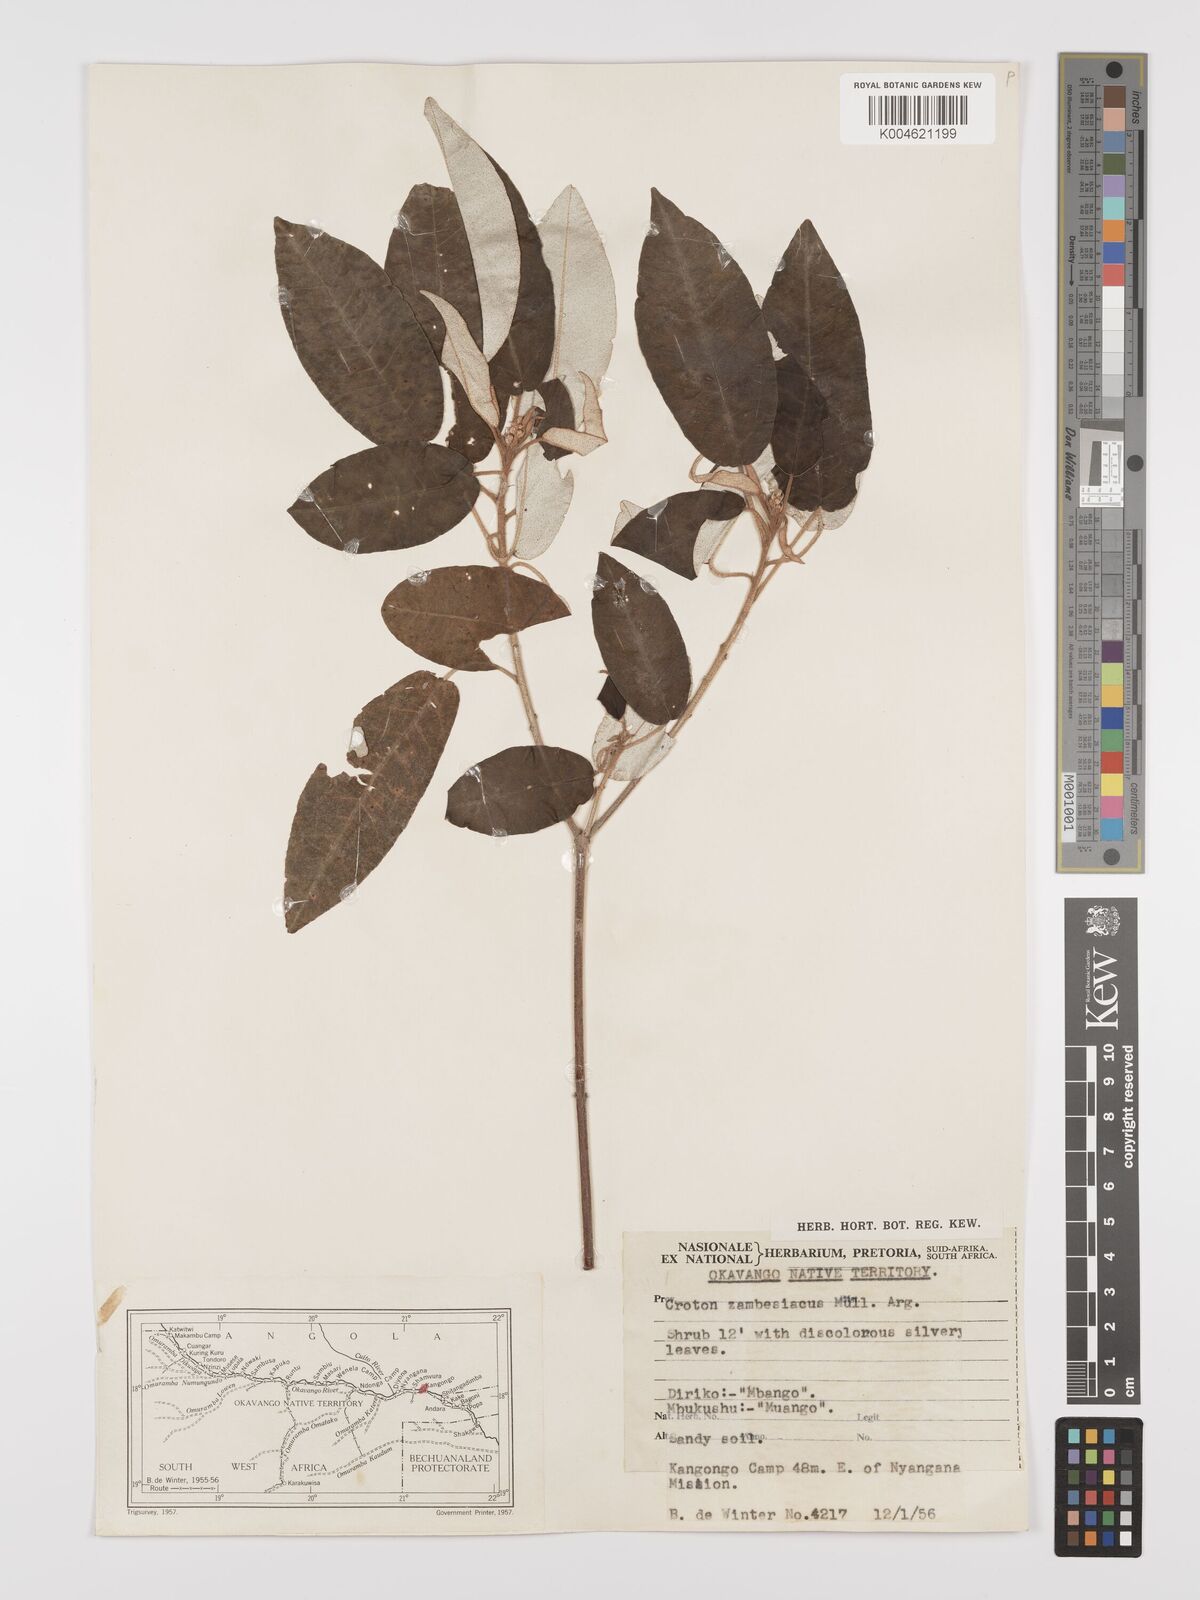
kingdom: Plantae
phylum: Tracheophyta
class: Magnoliopsida
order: Malpighiales
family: Euphorbiaceae
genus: Croton
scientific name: Croton gratissimus
